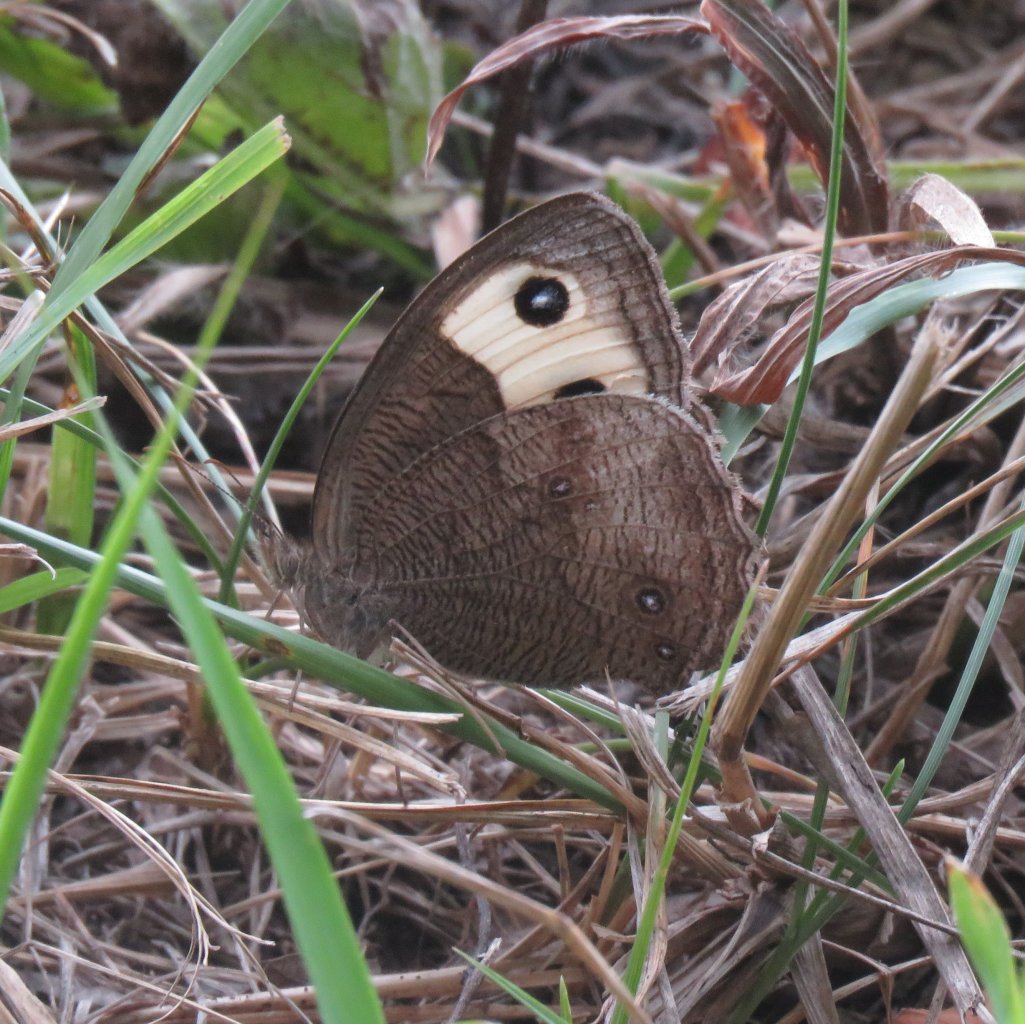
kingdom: Animalia
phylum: Arthropoda
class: Insecta
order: Lepidoptera
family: Nymphalidae
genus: Cercyonis
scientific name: Cercyonis pegala
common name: Common Wood-Nymph
